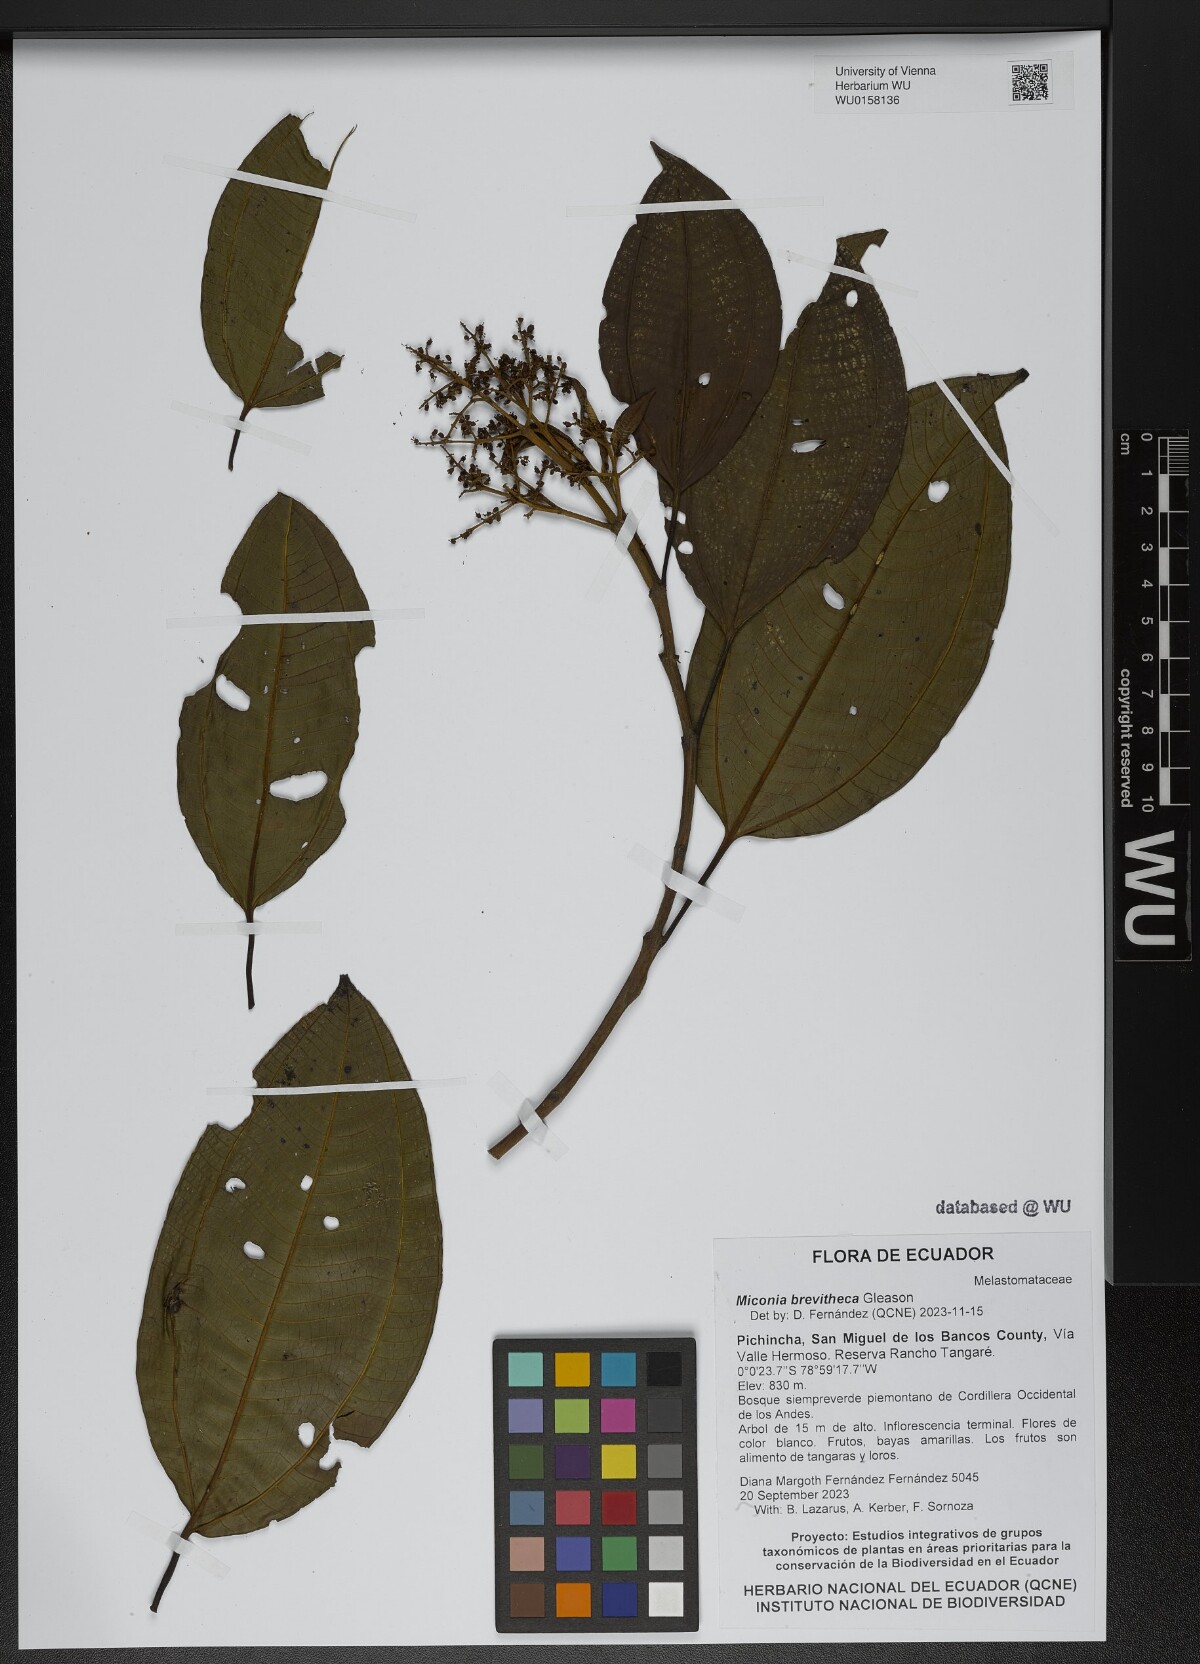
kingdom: Plantae
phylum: Tracheophyta
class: Magnoliopsida
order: Myrtales
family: Melastomataceae
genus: Miconia
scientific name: Miconia brevitheca
